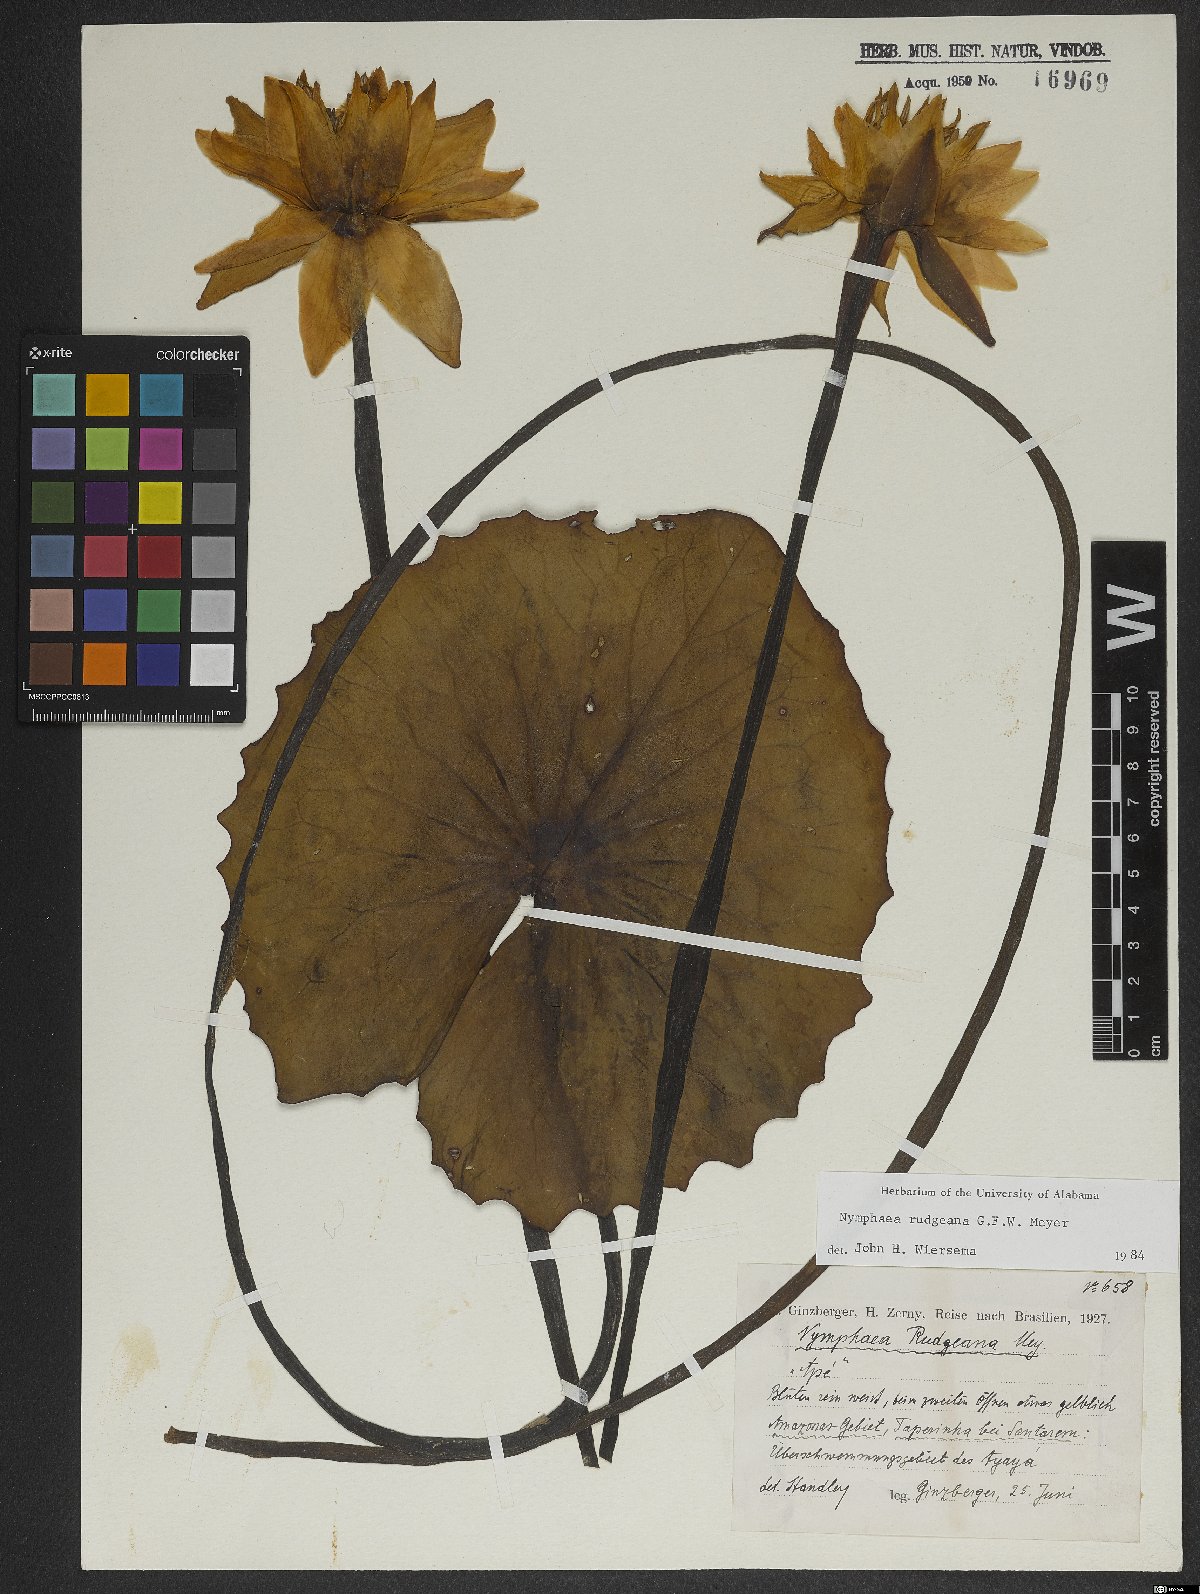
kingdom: Plantae
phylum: Tracheophyta
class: Magnoliopsida
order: Nymphaeales
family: Nymphaeaceae
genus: Nymphaea
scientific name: Nymphaea rudgeana
